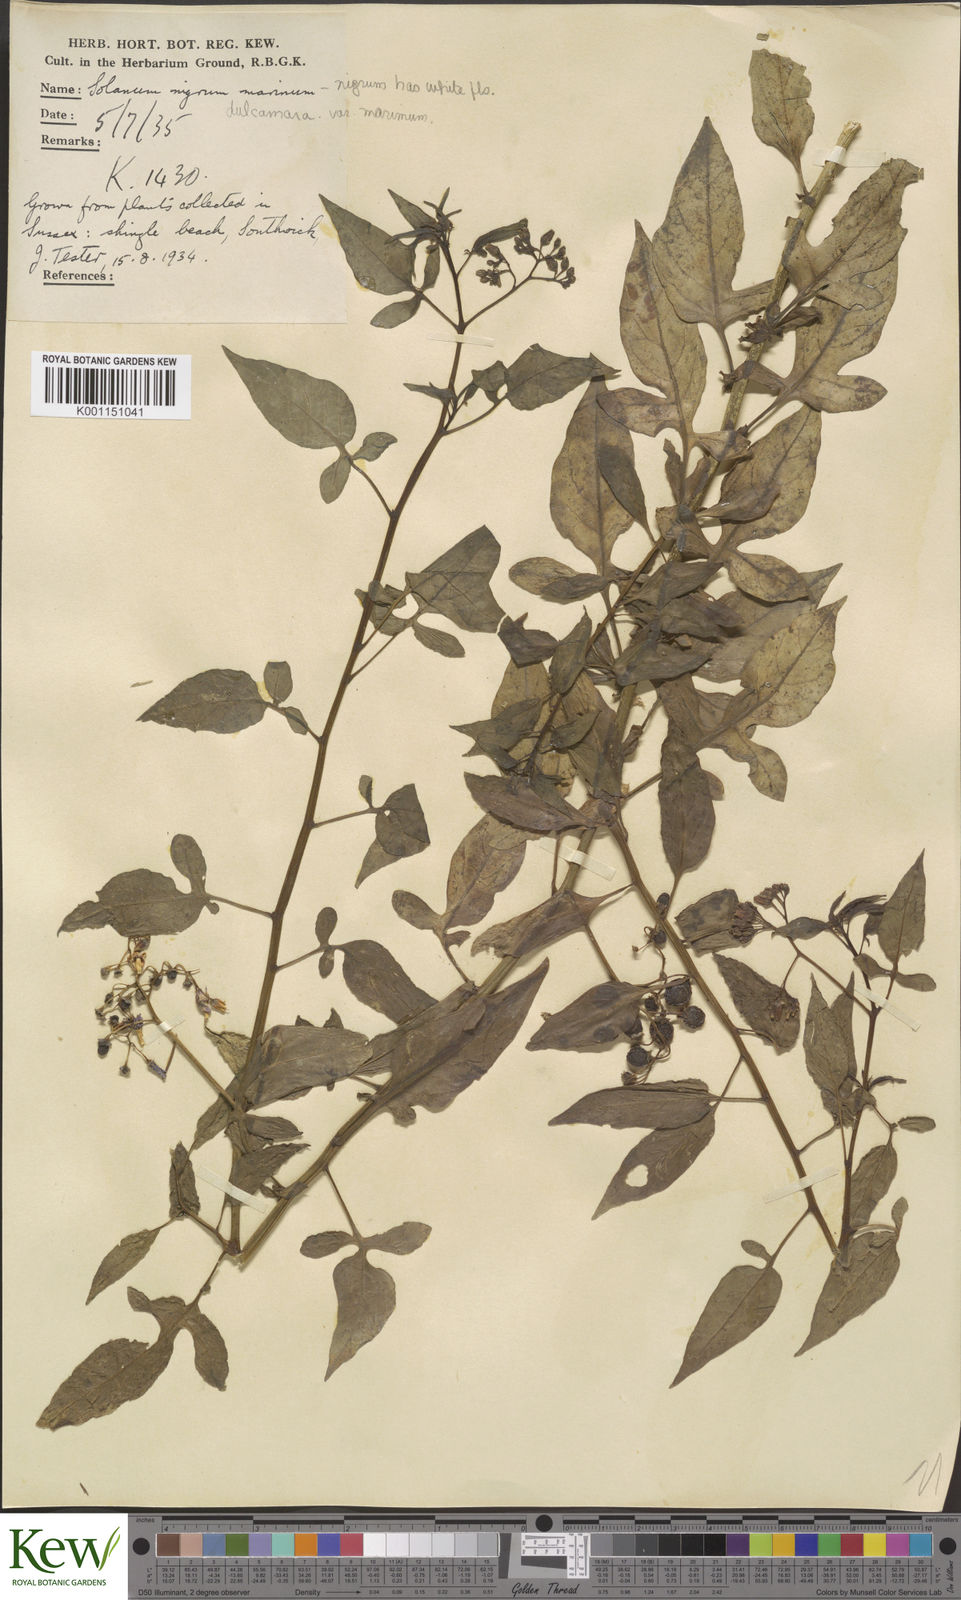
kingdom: Plantae
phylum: Tracheophyta
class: Magnoliopsida
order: Solanales
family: Solanaceae
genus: Solanum
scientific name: Solanum dulcamara
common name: Climbing nightshade
